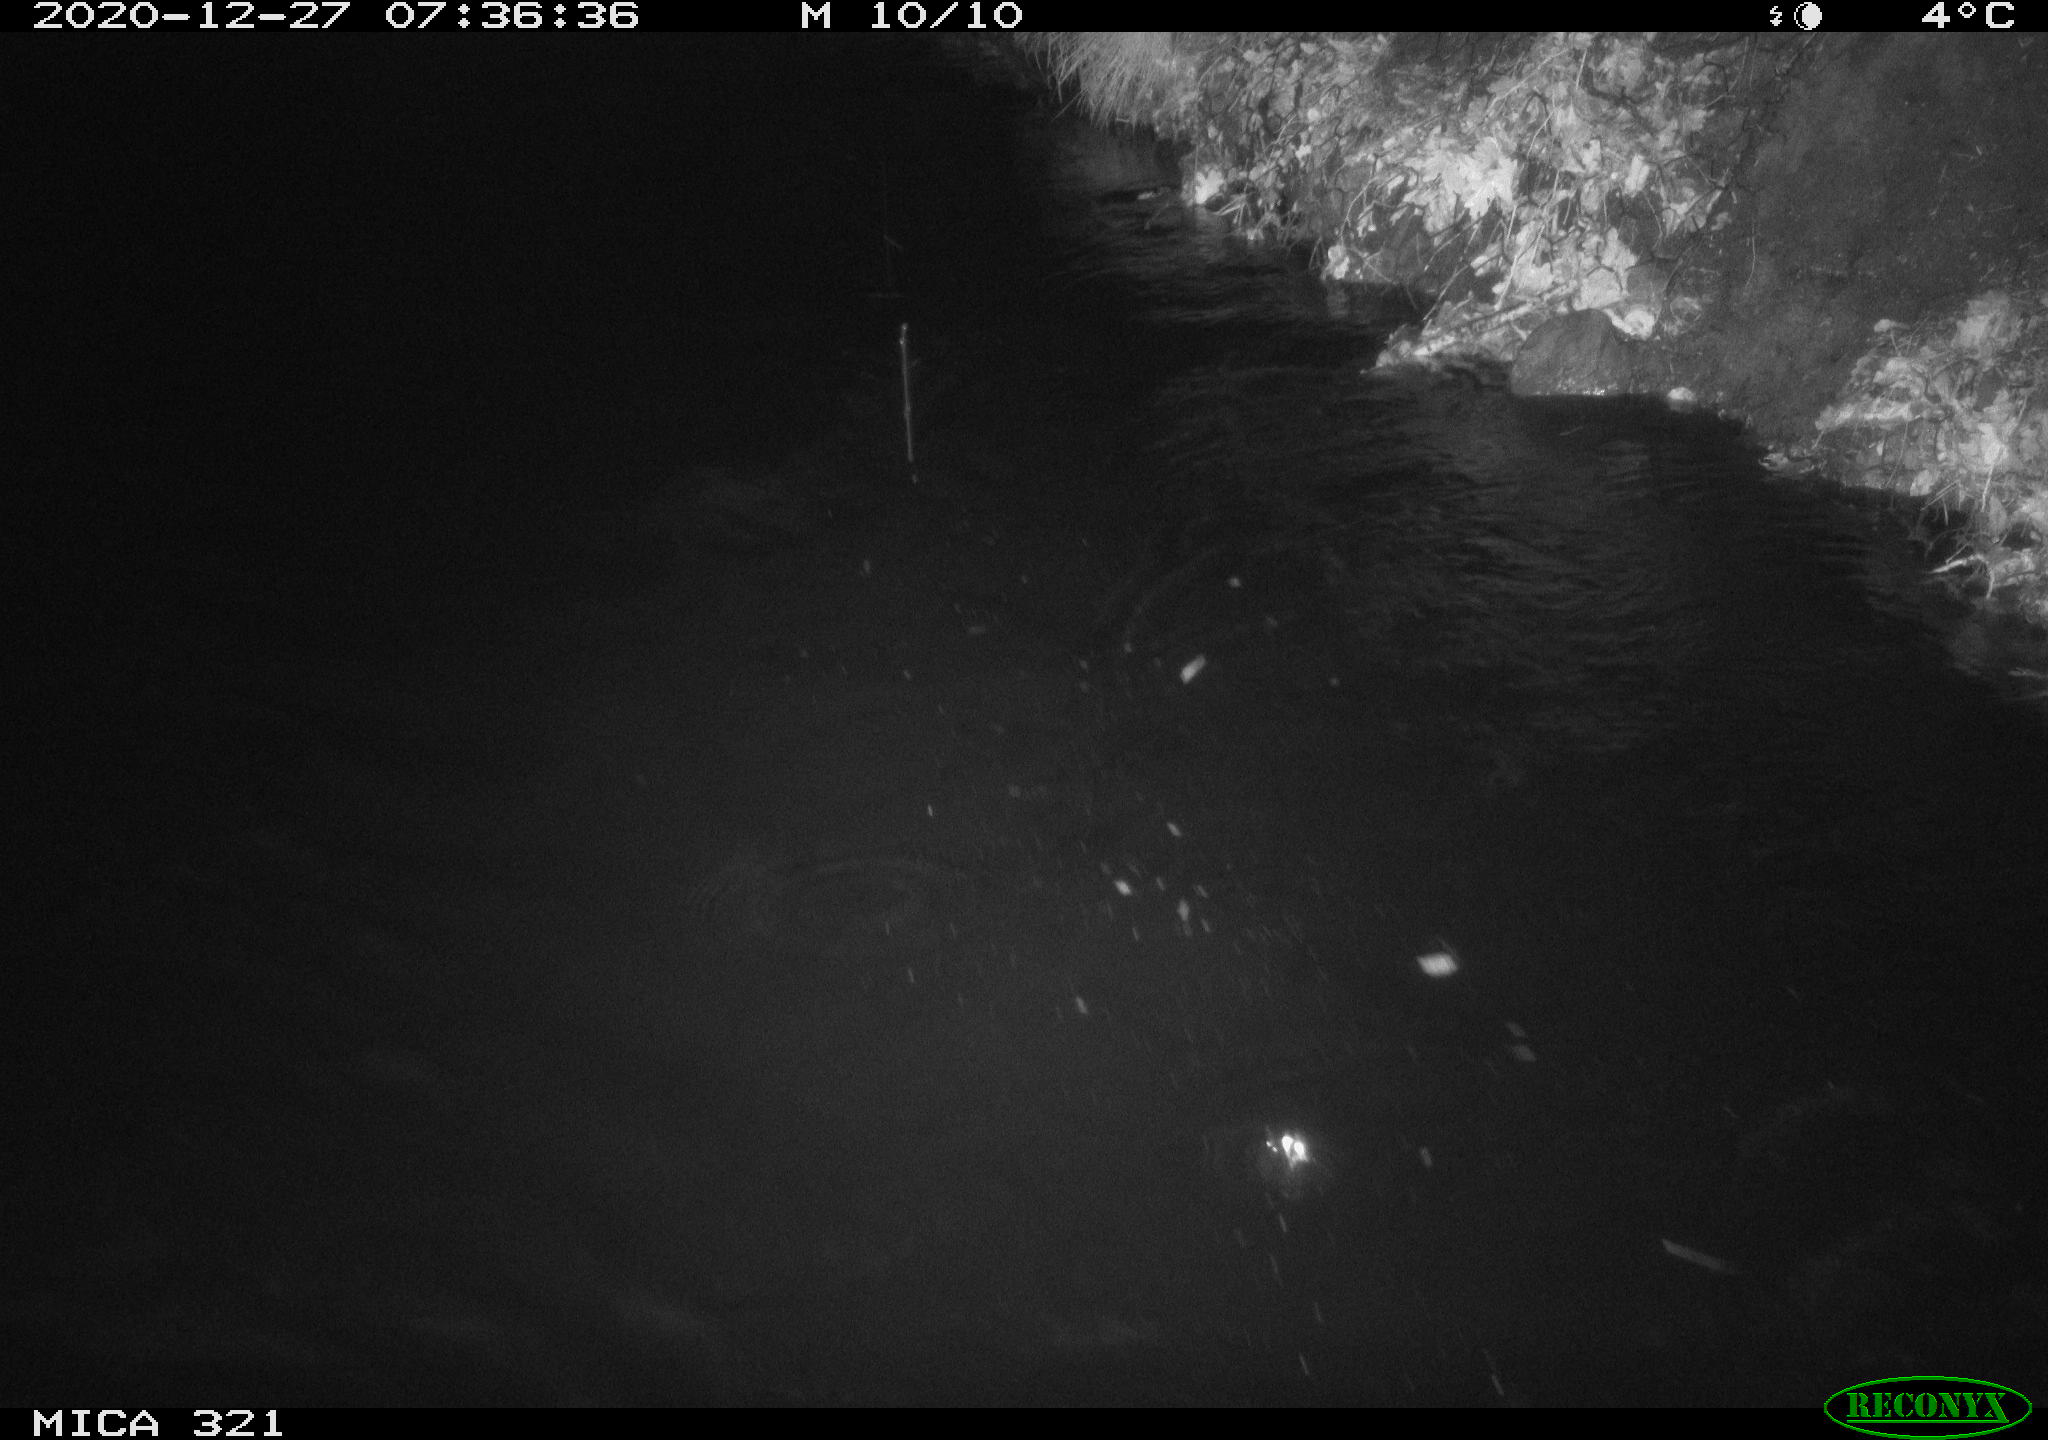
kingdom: Animalia
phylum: Chordata
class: Aves
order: Anseriformes
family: Anatidae
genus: Anas
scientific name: Anas platyrhynchos
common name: Mallard
